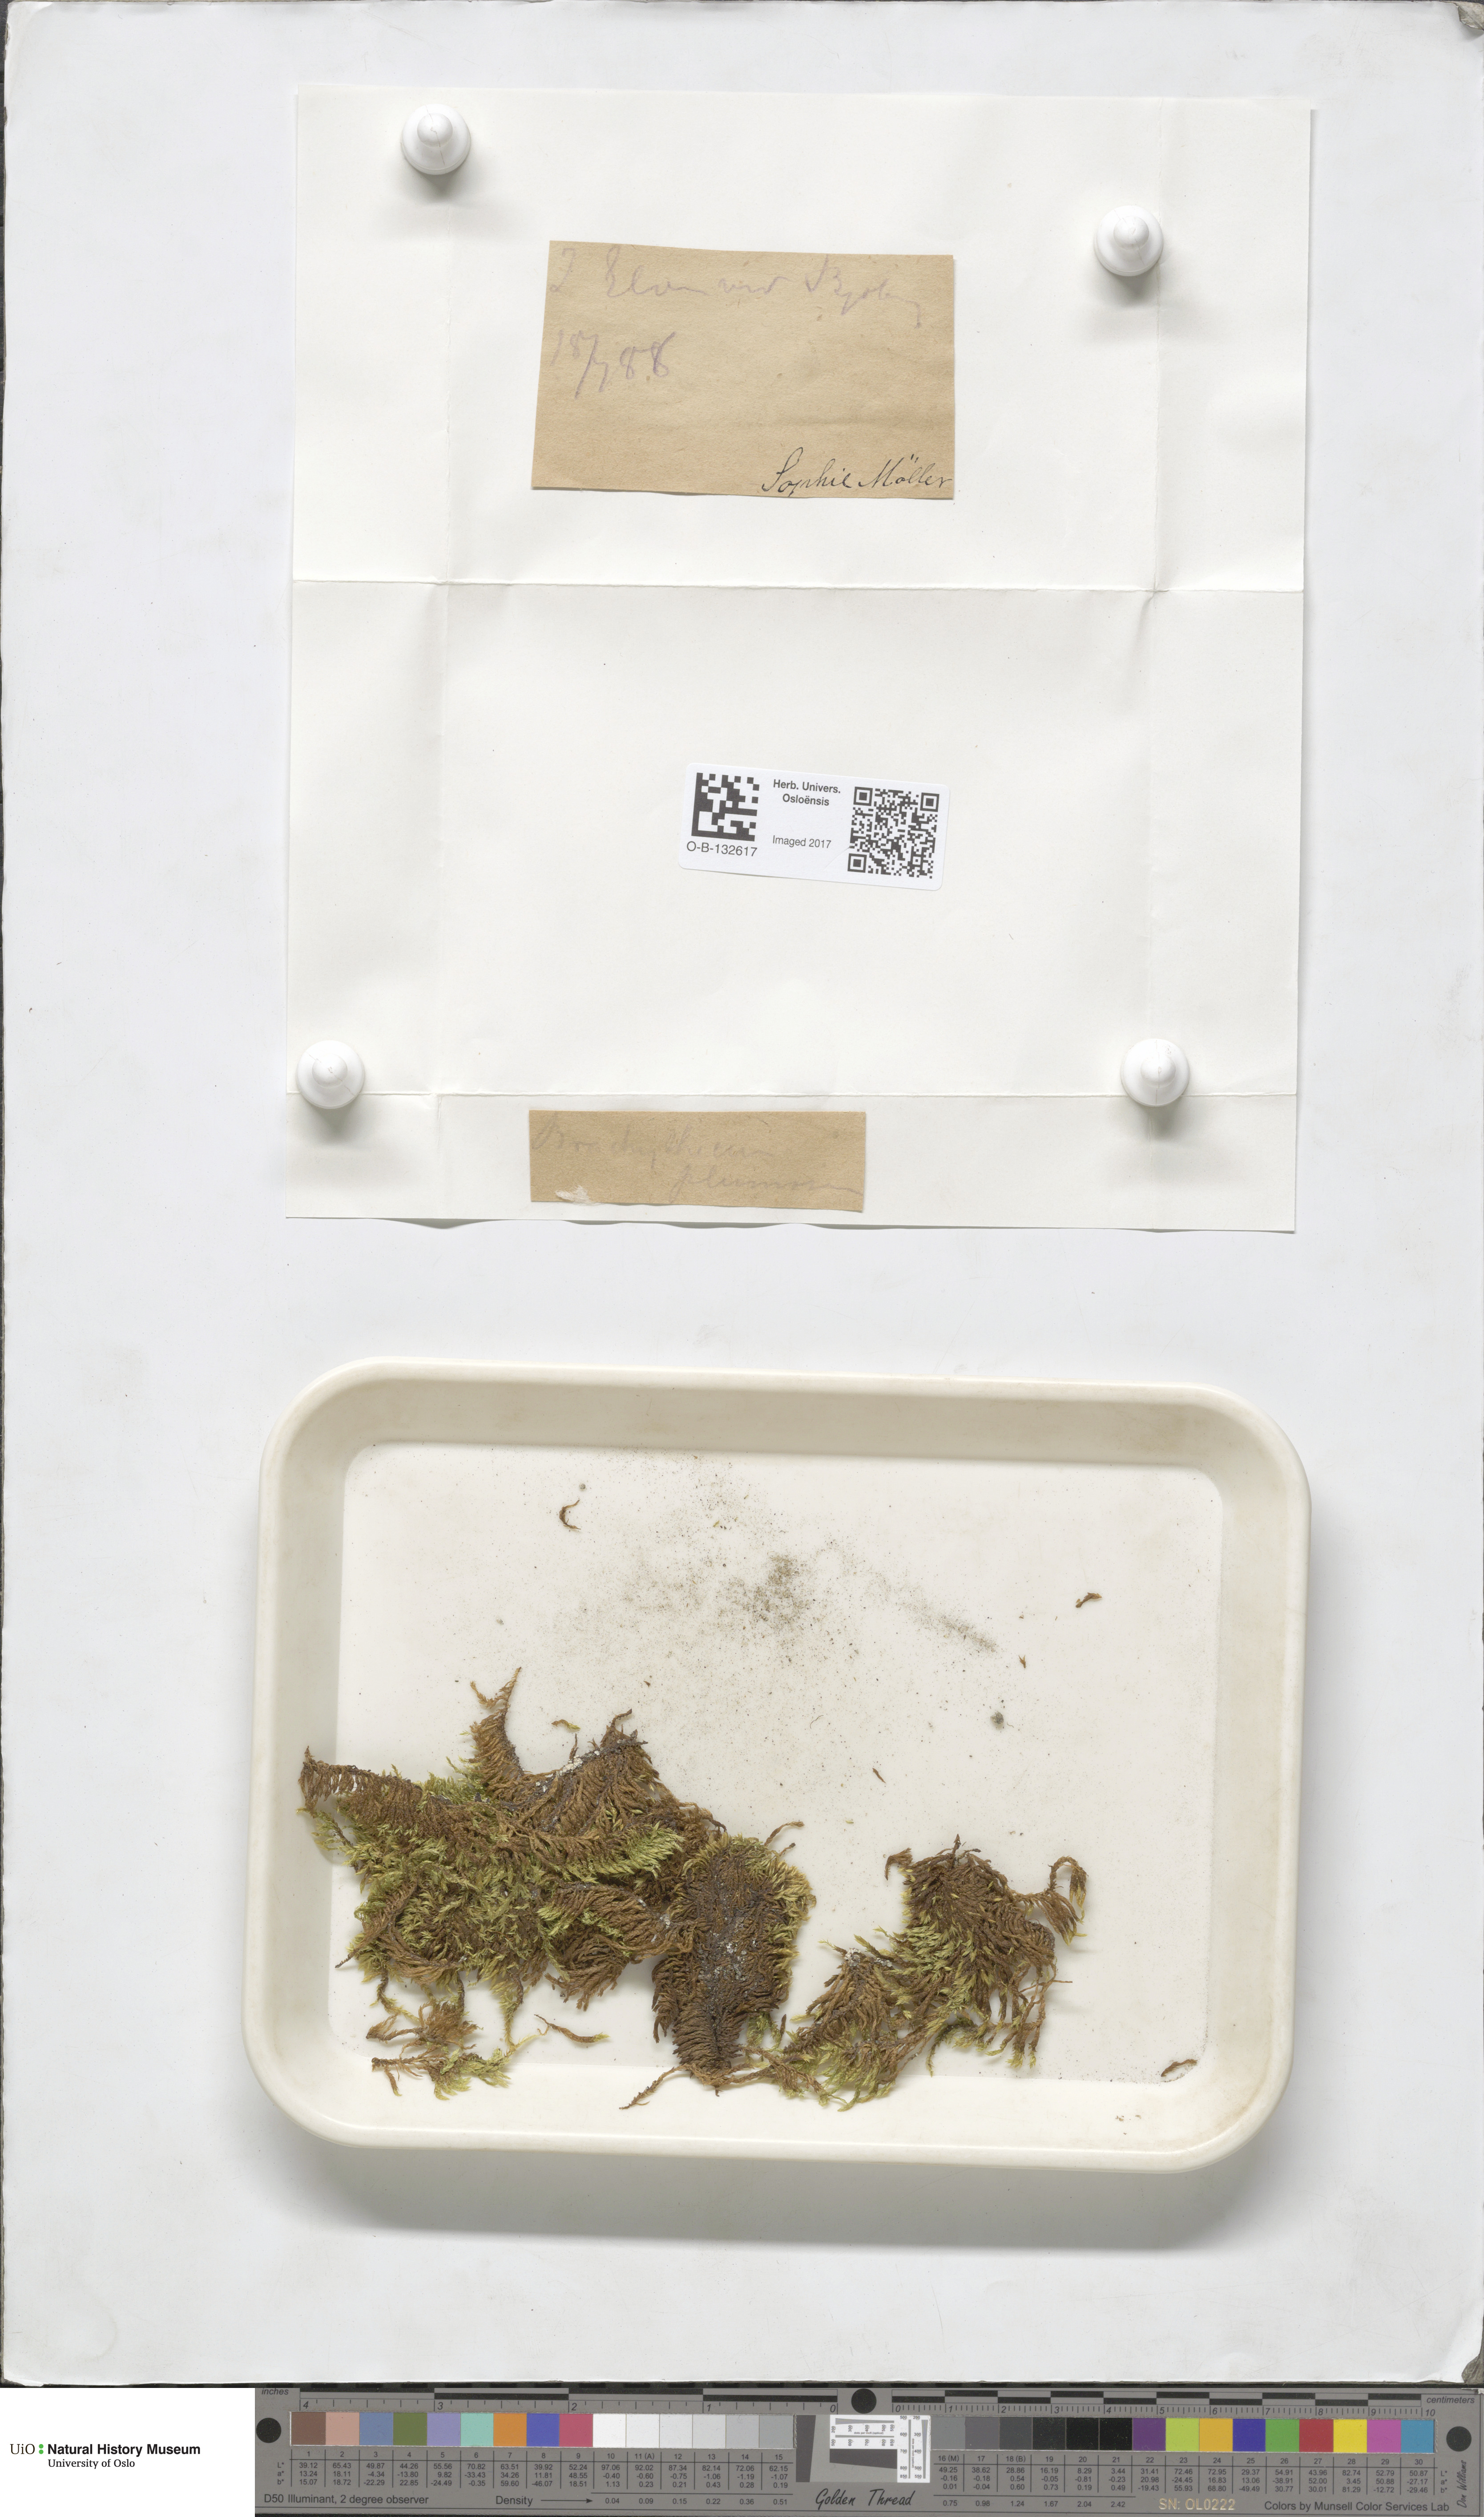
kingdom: Plantae
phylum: Bryophyta
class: Bryopsida
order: Hypnales
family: Brachytheciaceae
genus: Sciuro-hypnum
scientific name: Sciuro-hypnum plumosum
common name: Rusty feather-moss
